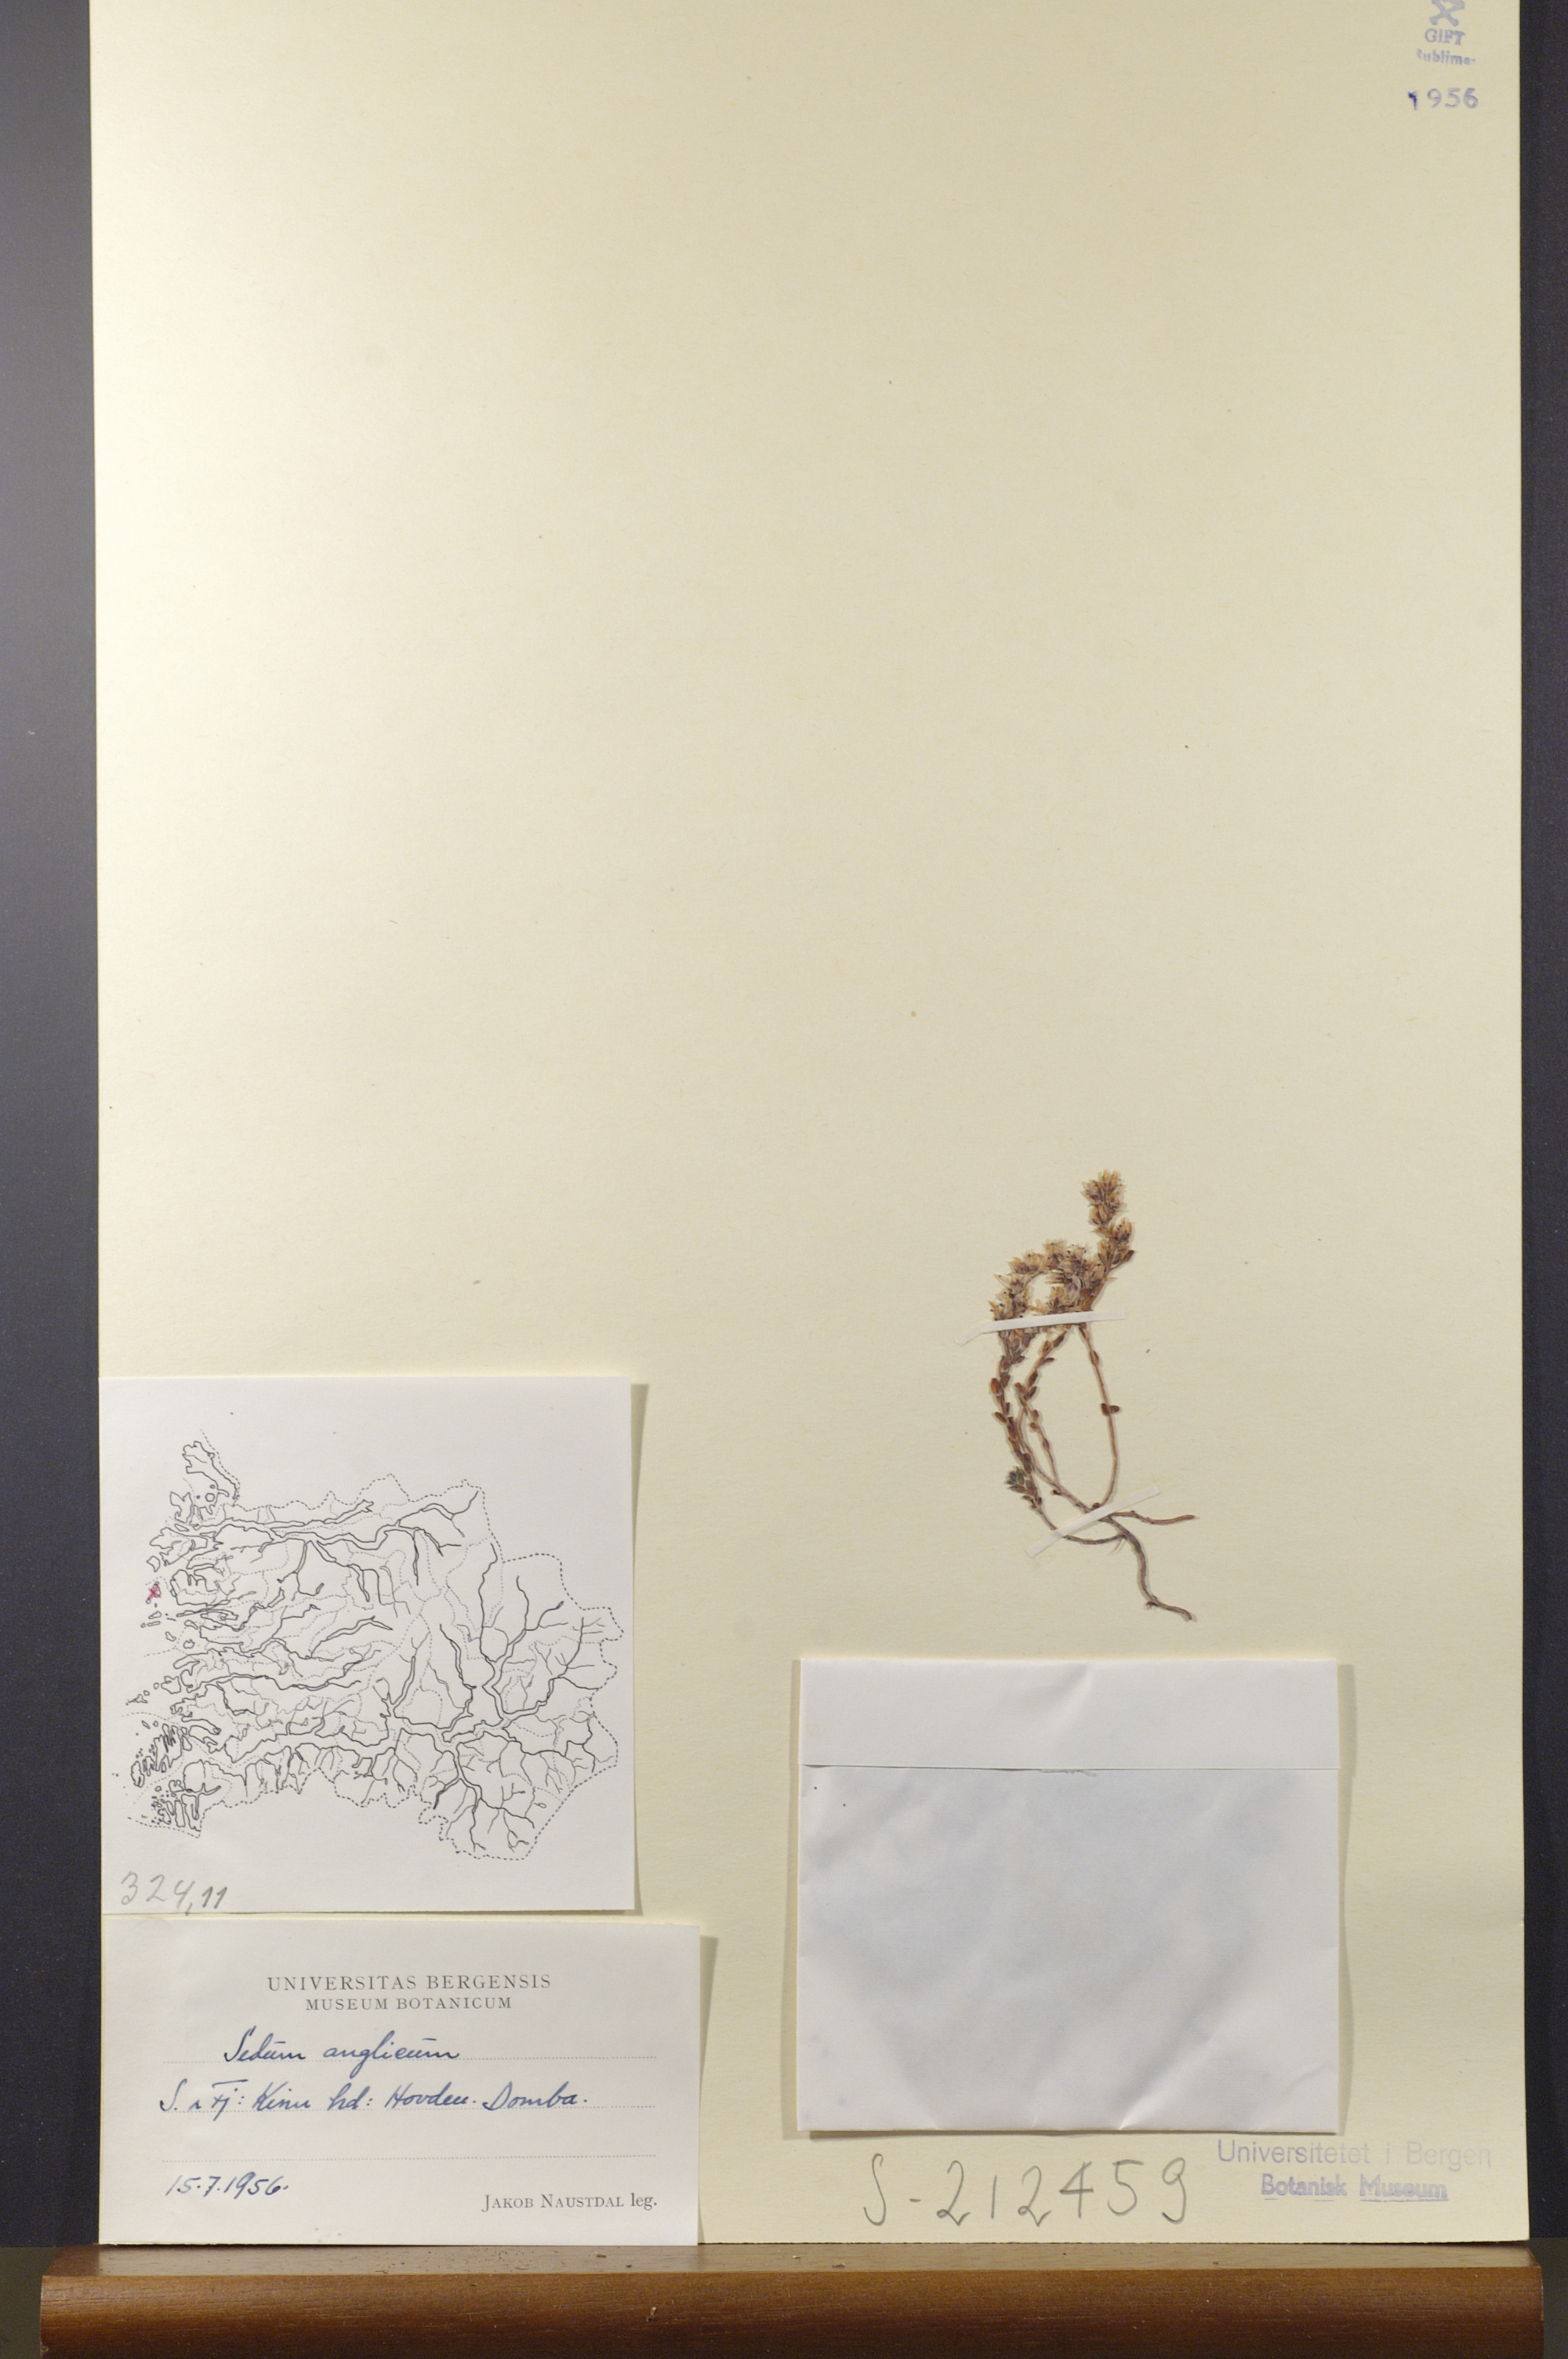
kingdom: Plantae
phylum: Tracheophyta
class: Magnoliopsida
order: Saxifragales
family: Crassulaceae
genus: Sedum
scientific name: Sedum anglicum
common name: English stonecrop
